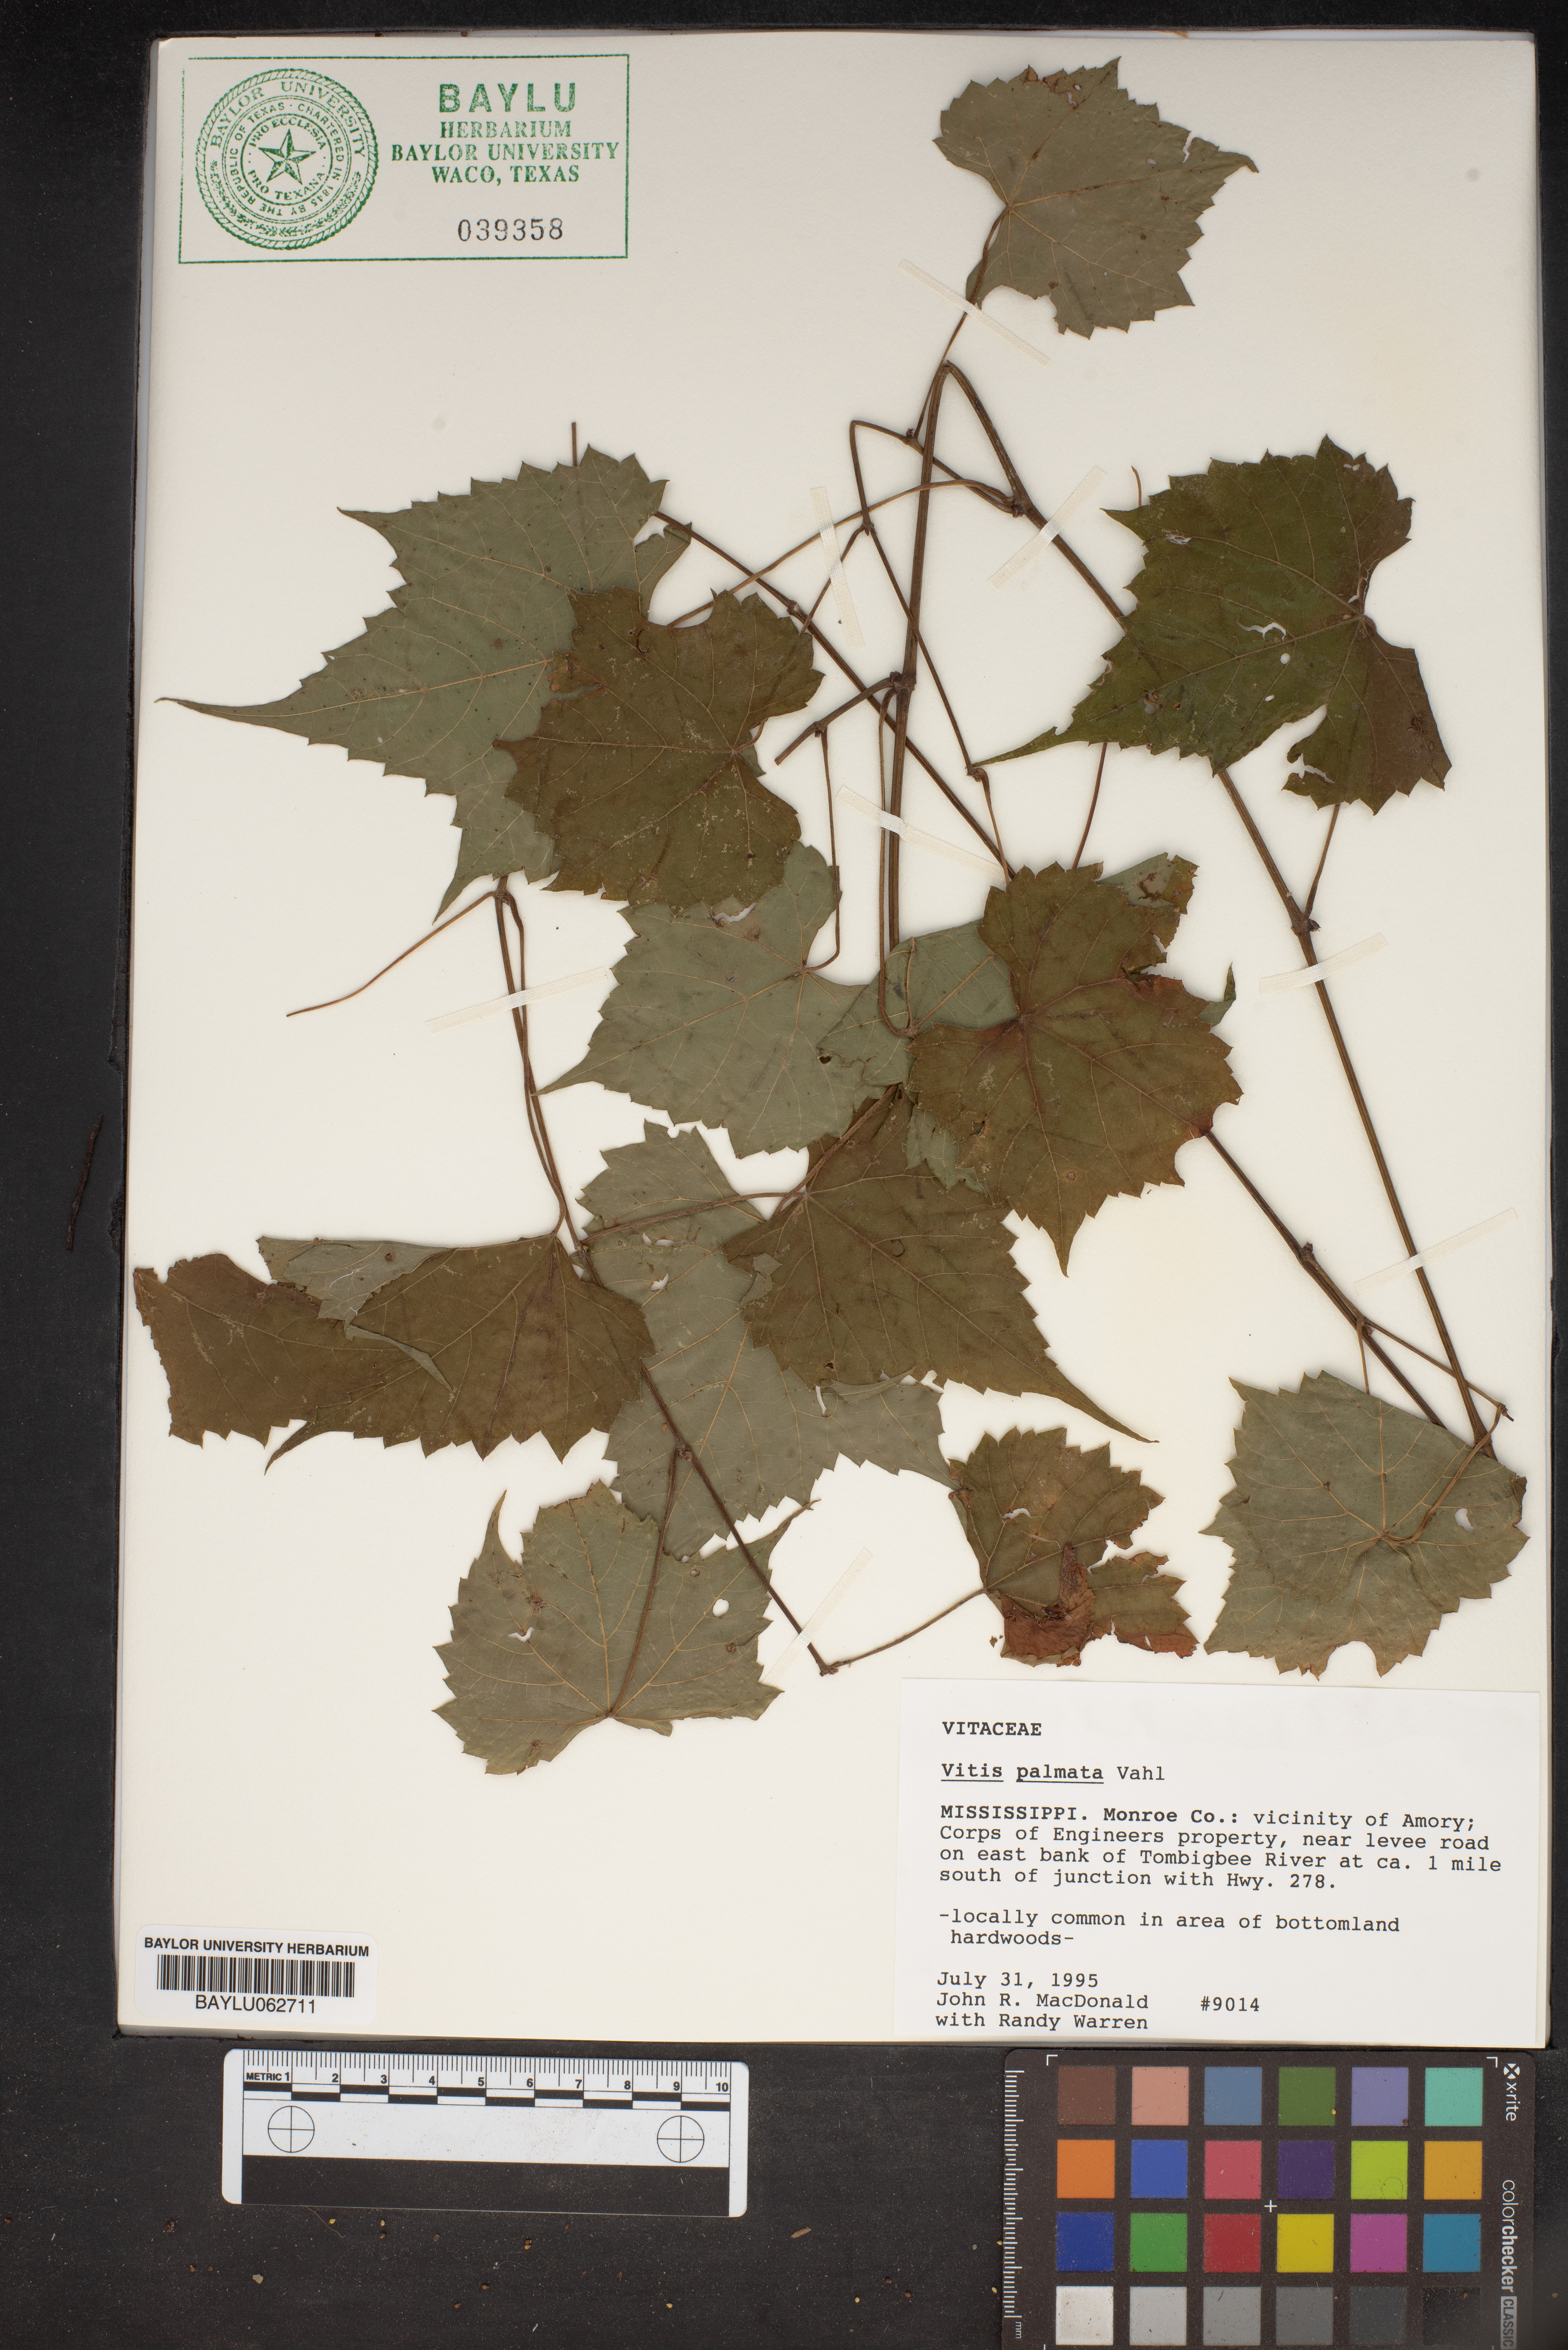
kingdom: Plantae
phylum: Tracheophyta
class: Magnoliopsida
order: Vitales
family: Vitaceae
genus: Vitis
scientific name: Vitis palmata
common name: Catbird grape
